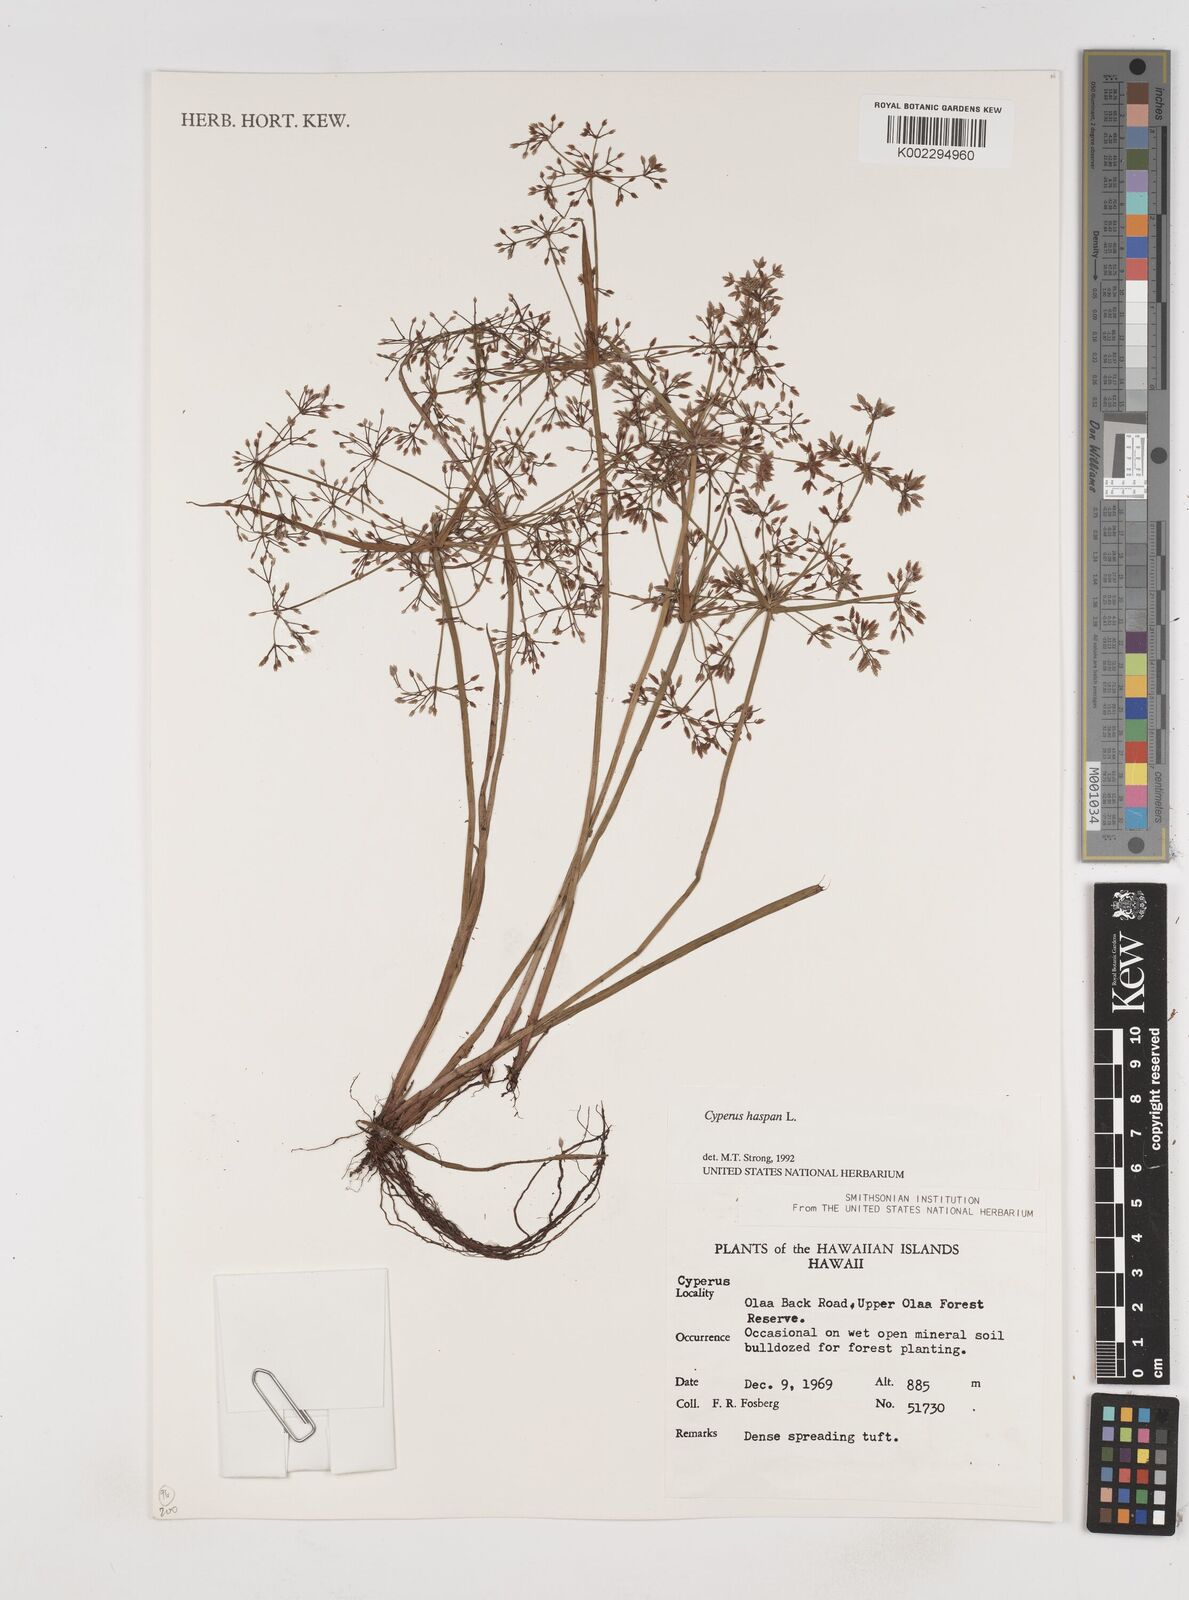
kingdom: Plantae
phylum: Tracheophyta
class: Liliopsida
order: Poales
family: Cyperaceae
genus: Cyperus
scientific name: Cyperus difformis
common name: Variable flatsedge
